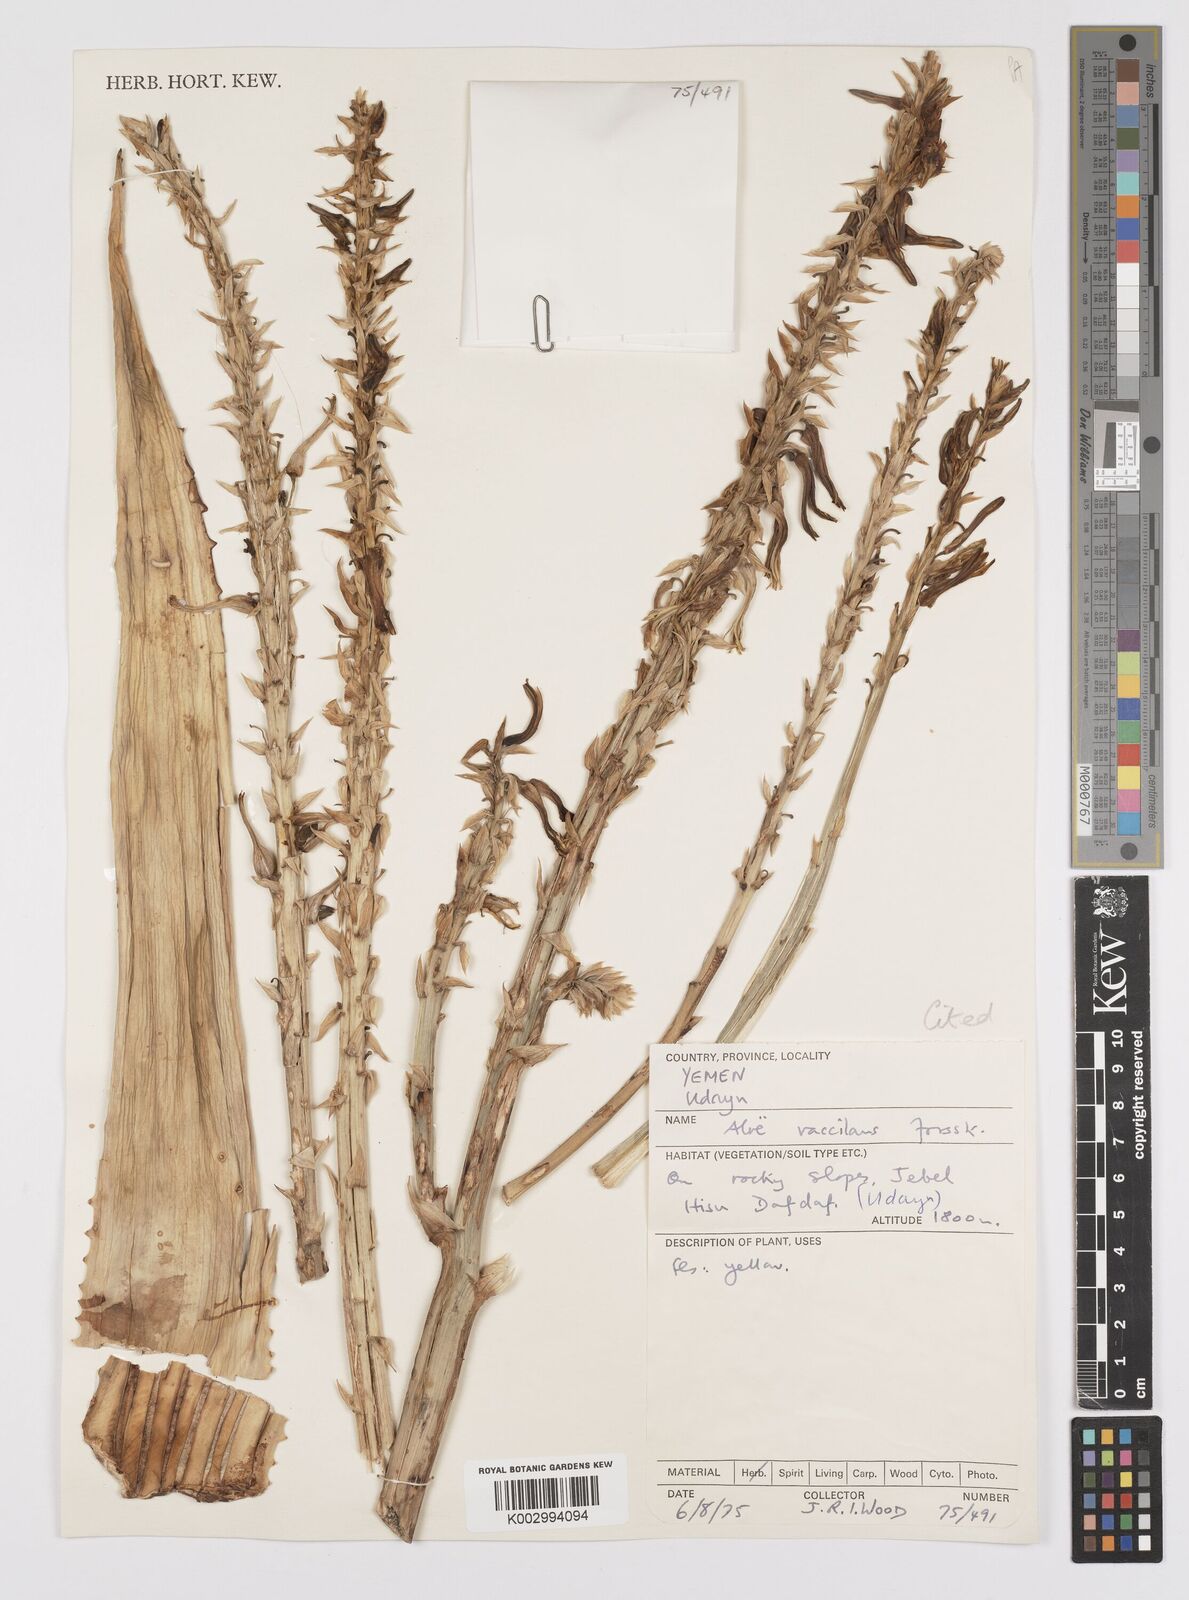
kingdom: Plantae
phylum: Tracheophyta
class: Liliopsida
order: Asparagales
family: Asphodelaceae
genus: Aloe
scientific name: Aloe vacillans
